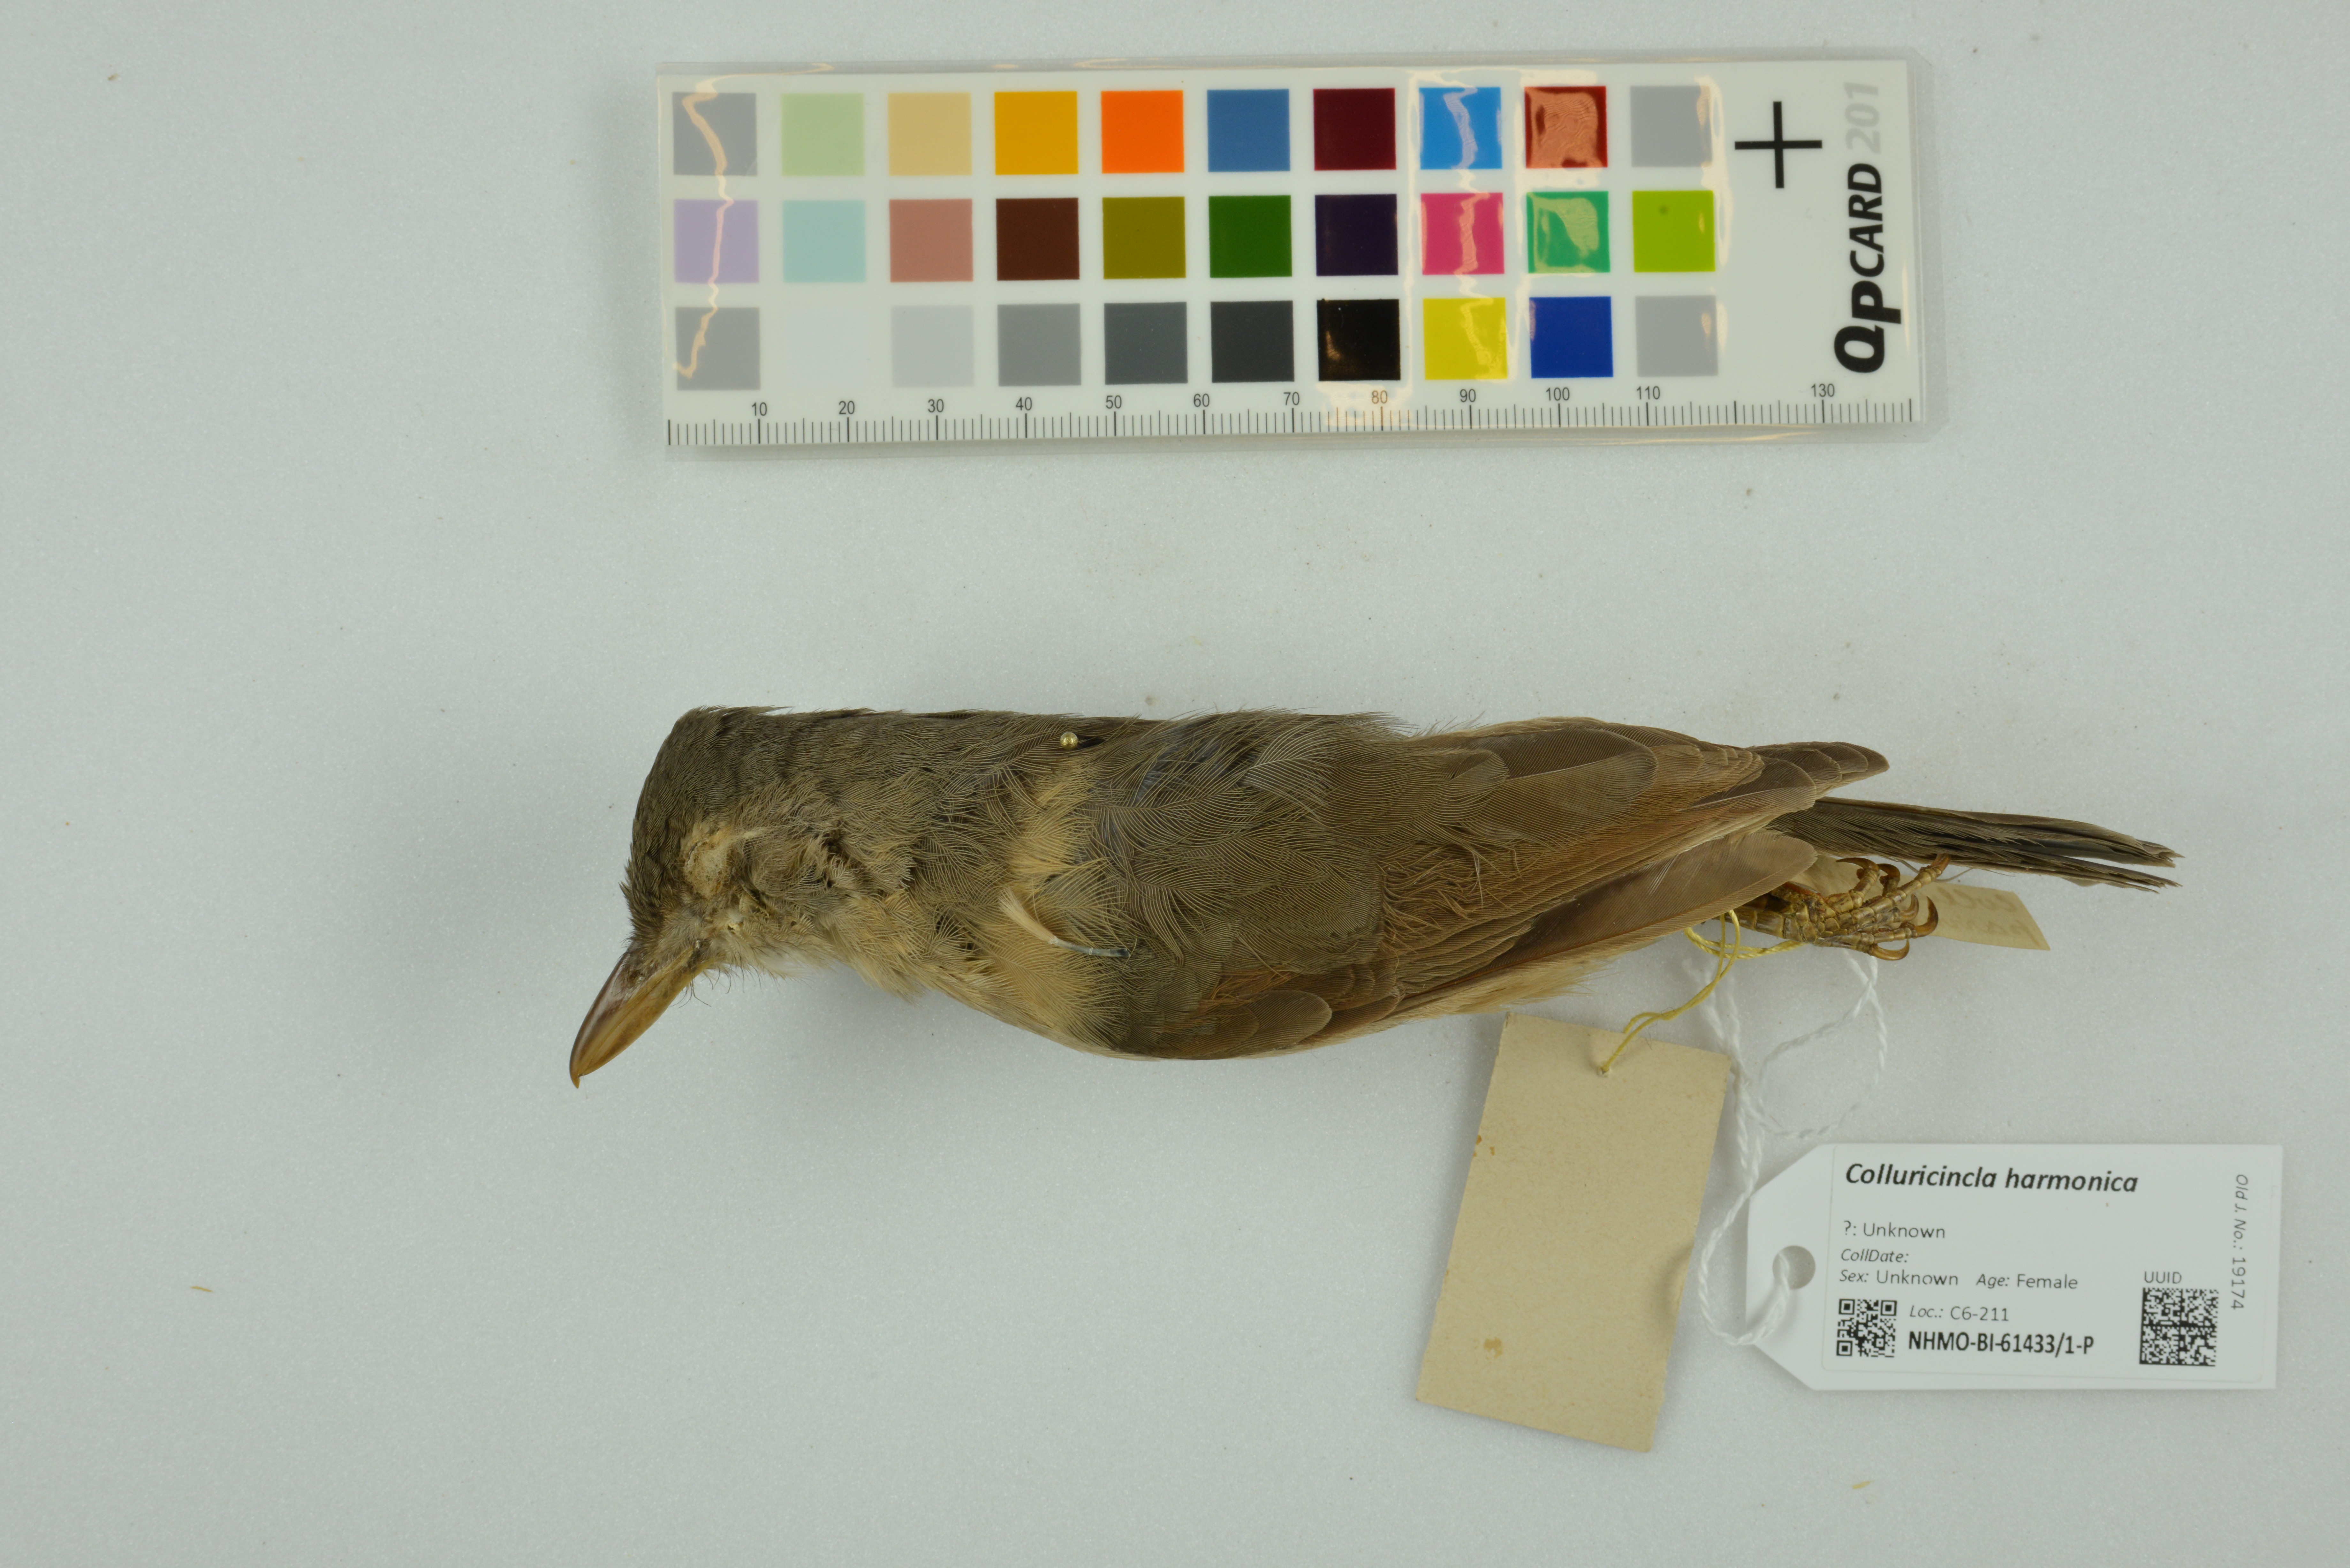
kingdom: Animalia
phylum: Chordata
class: Aves
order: Passeriformes
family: Pachycephalidae
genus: Colluricincla
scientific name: Colluricincla harmonica
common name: Grey shrikethrush
